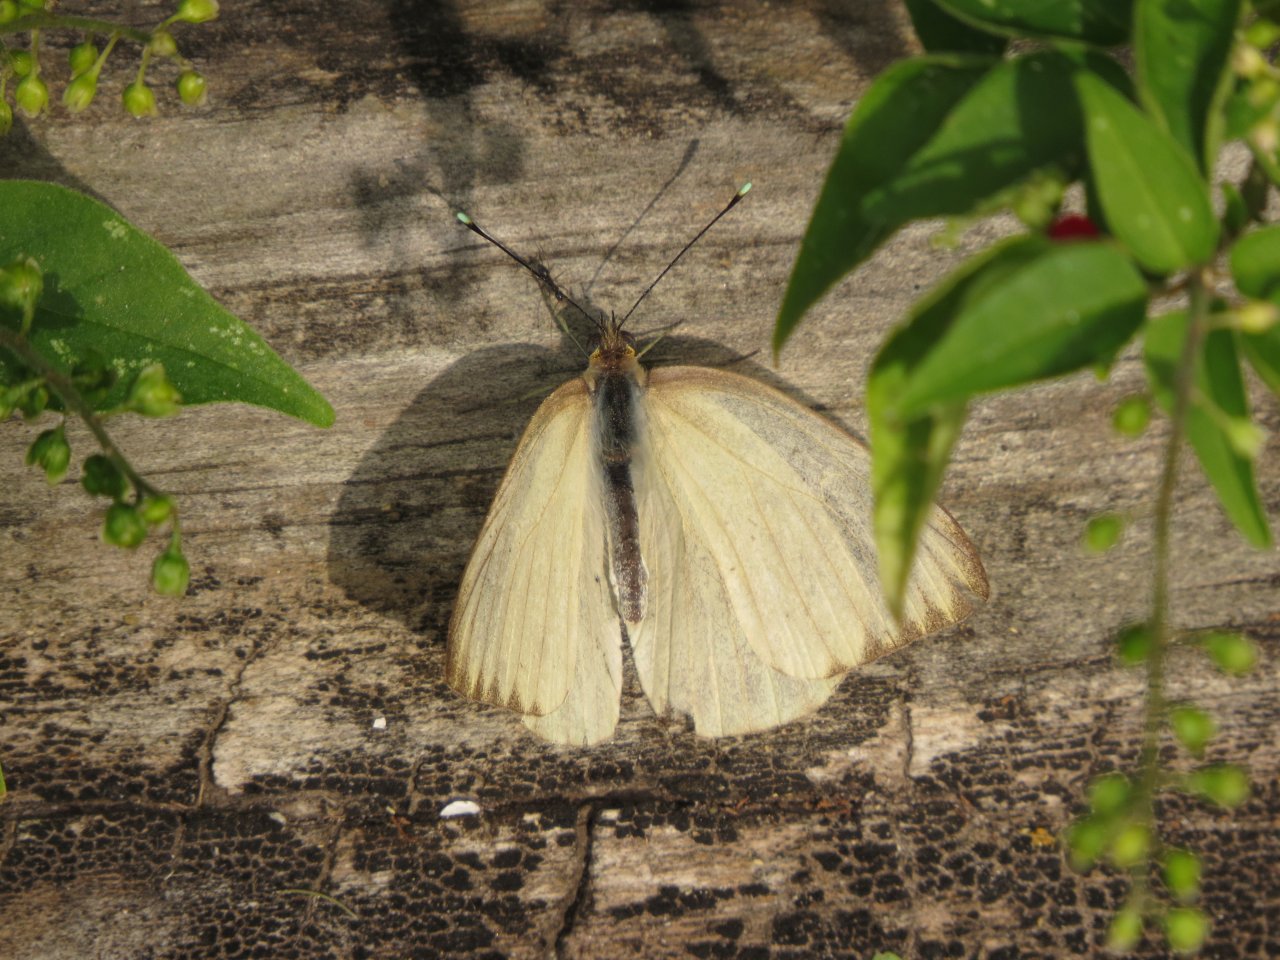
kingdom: Animalia
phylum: Arthropoda
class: Insecta
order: Lepidoptera
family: Pieridae
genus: Ascia
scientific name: Ascia monuste
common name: Great Southern White
